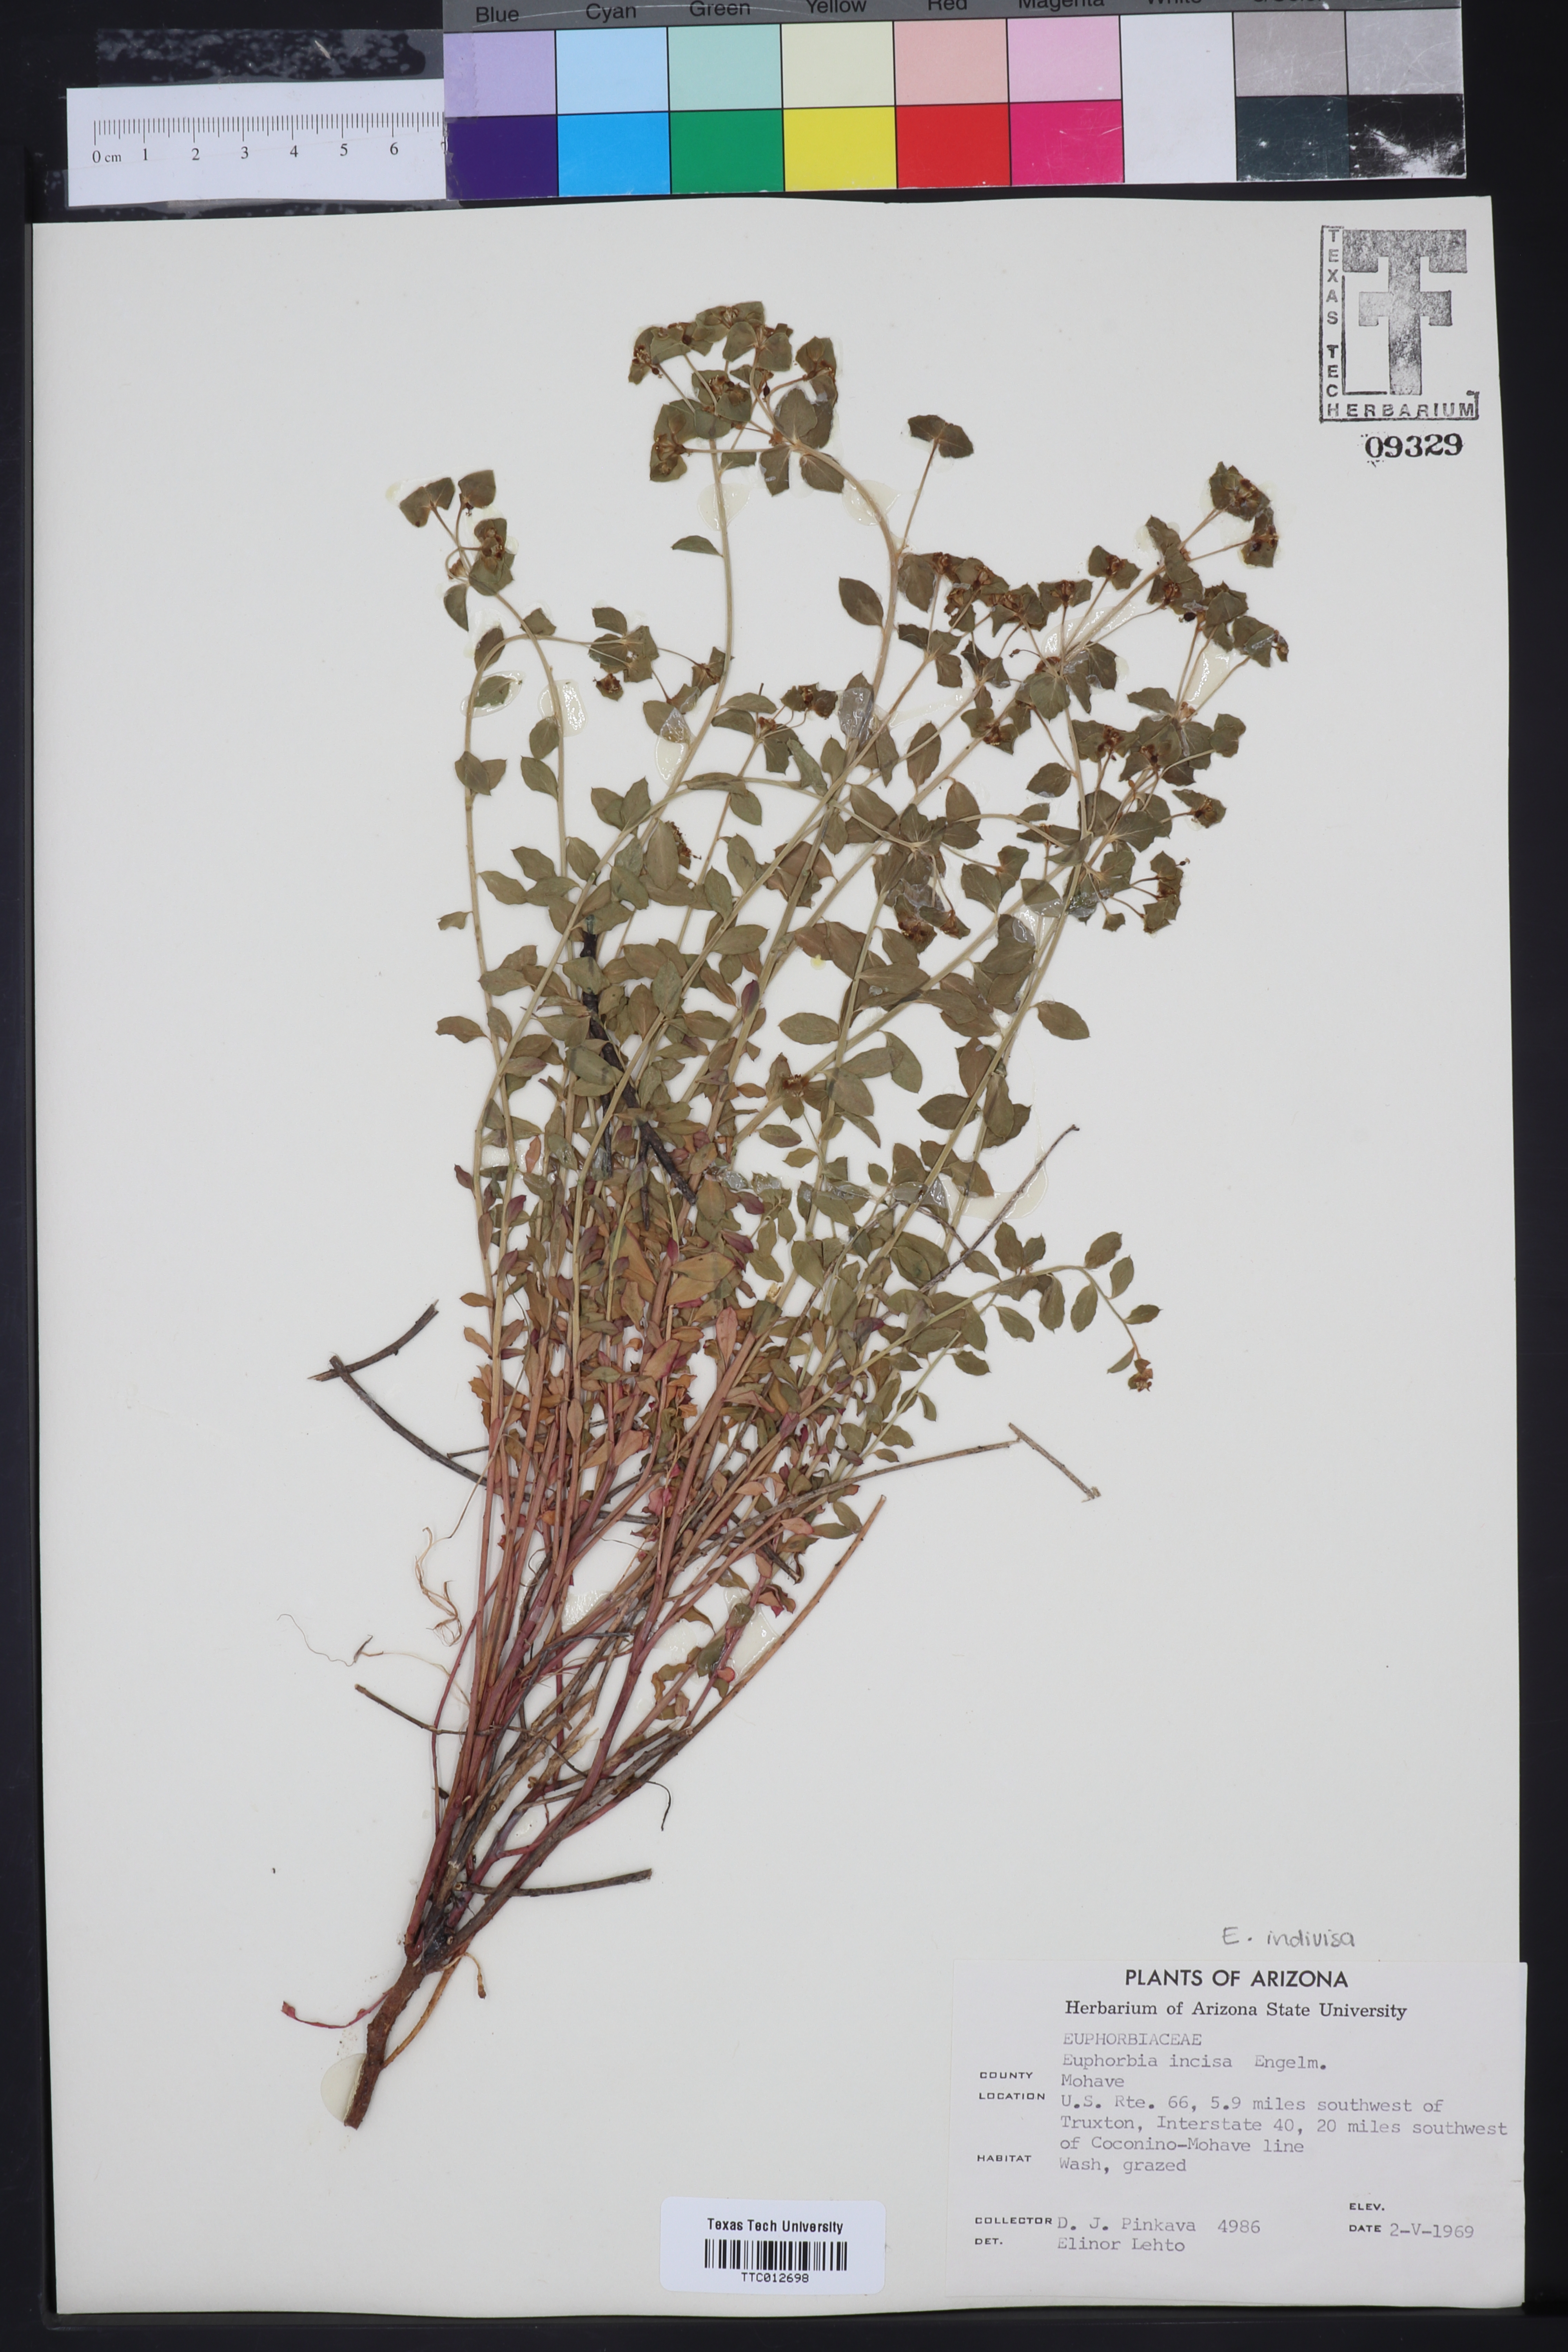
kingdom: Plantae
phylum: Tracheophyta
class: Magnoliopsida
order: Malpighiales
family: Euphorbiaceae
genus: Euphorbia
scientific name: Euphorbia schizoloba
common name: Mojave spurge
